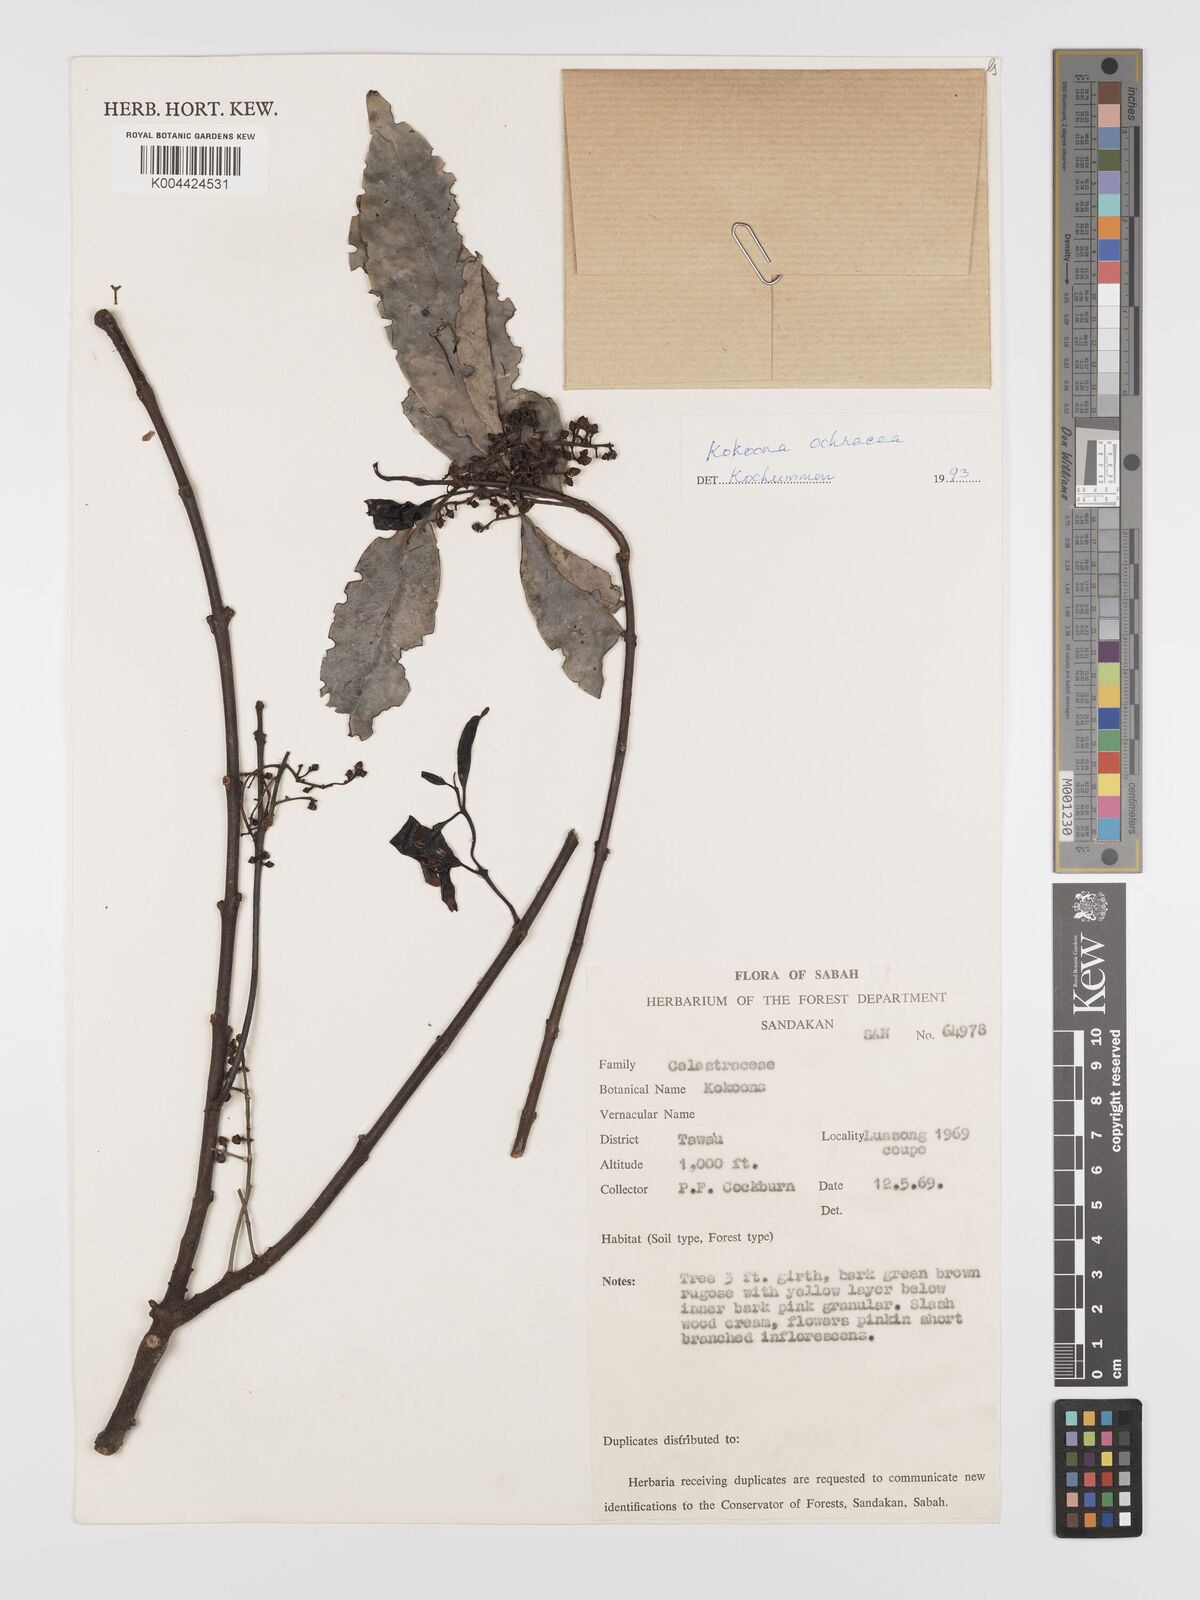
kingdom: Plantae
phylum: Tracheophyta
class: Magnoliopsida
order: Celastrales
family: Celastraceae
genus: Kokoona
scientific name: Kokoona ochracea
